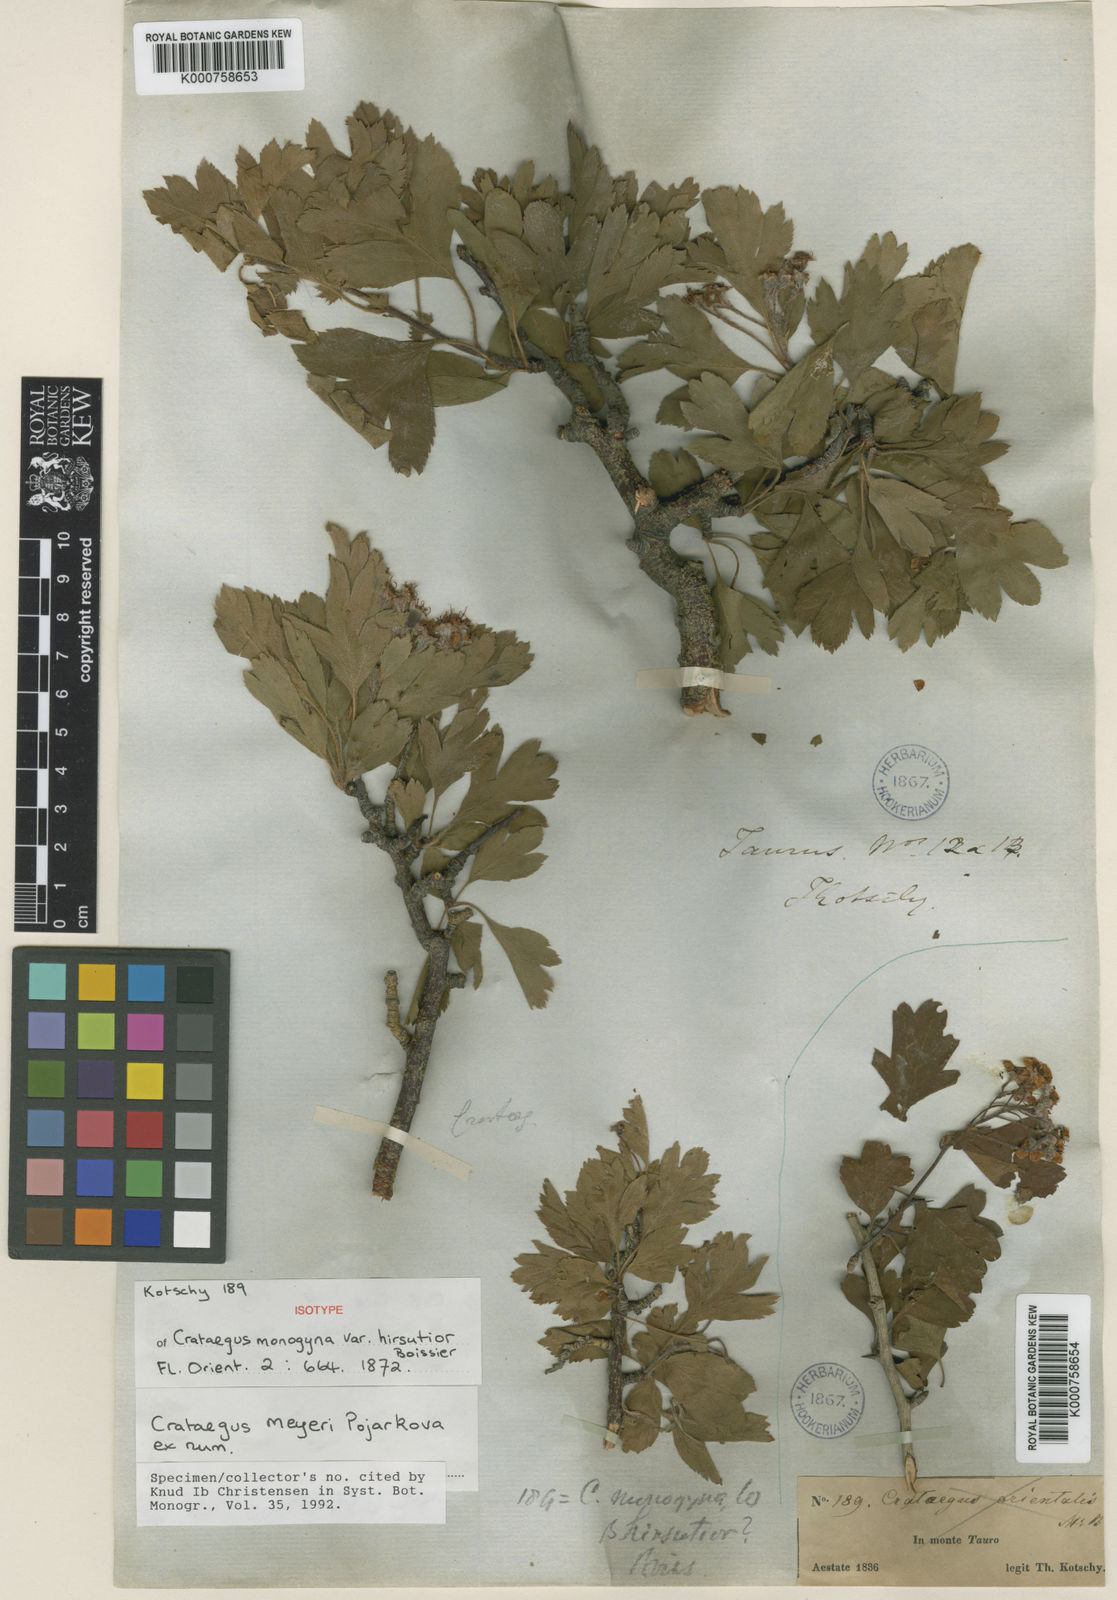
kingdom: Plantae
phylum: Tracheophyta
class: Magnoliopsida
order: Rosales
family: Rosaceae
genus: Crataegus
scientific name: Crataegus meyeri
